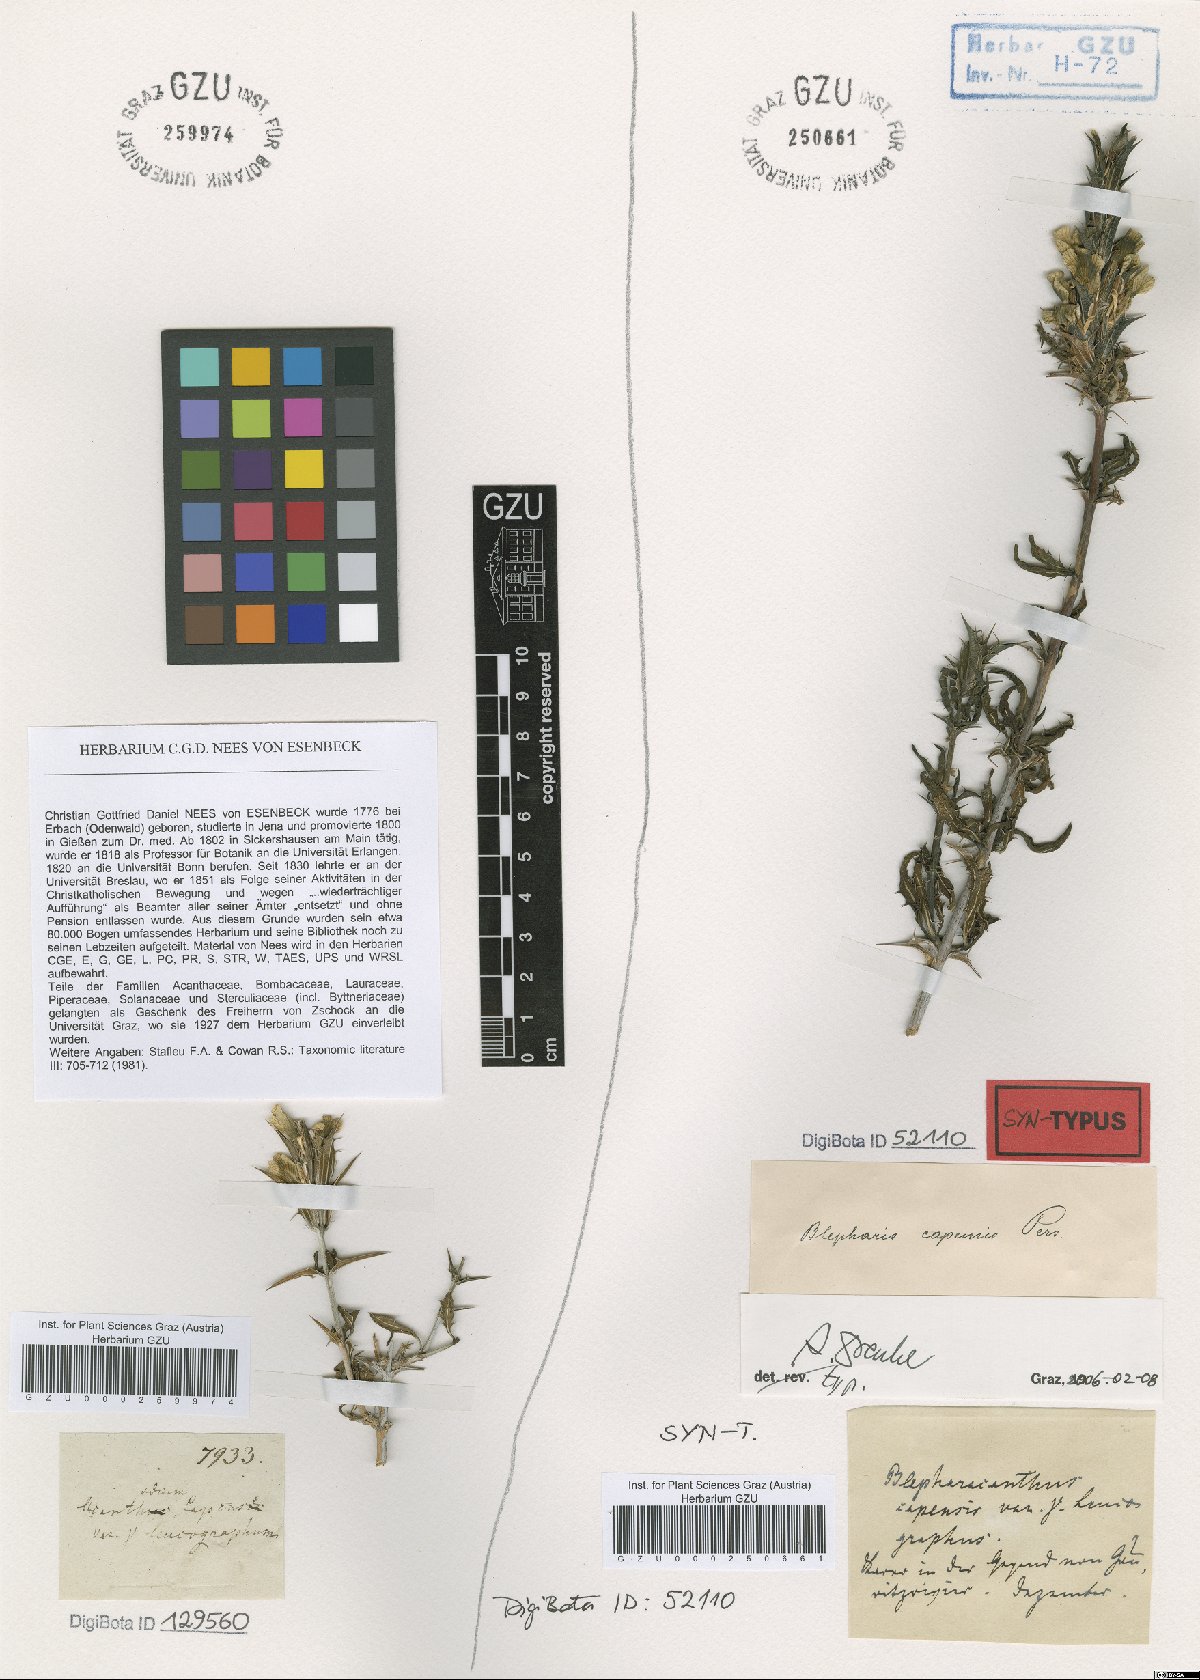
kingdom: Plantae
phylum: Tracheophyta
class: Magnoliopsida
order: Lamiales
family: Acanthaceae
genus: Blepharis
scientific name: Blepharis capensis
